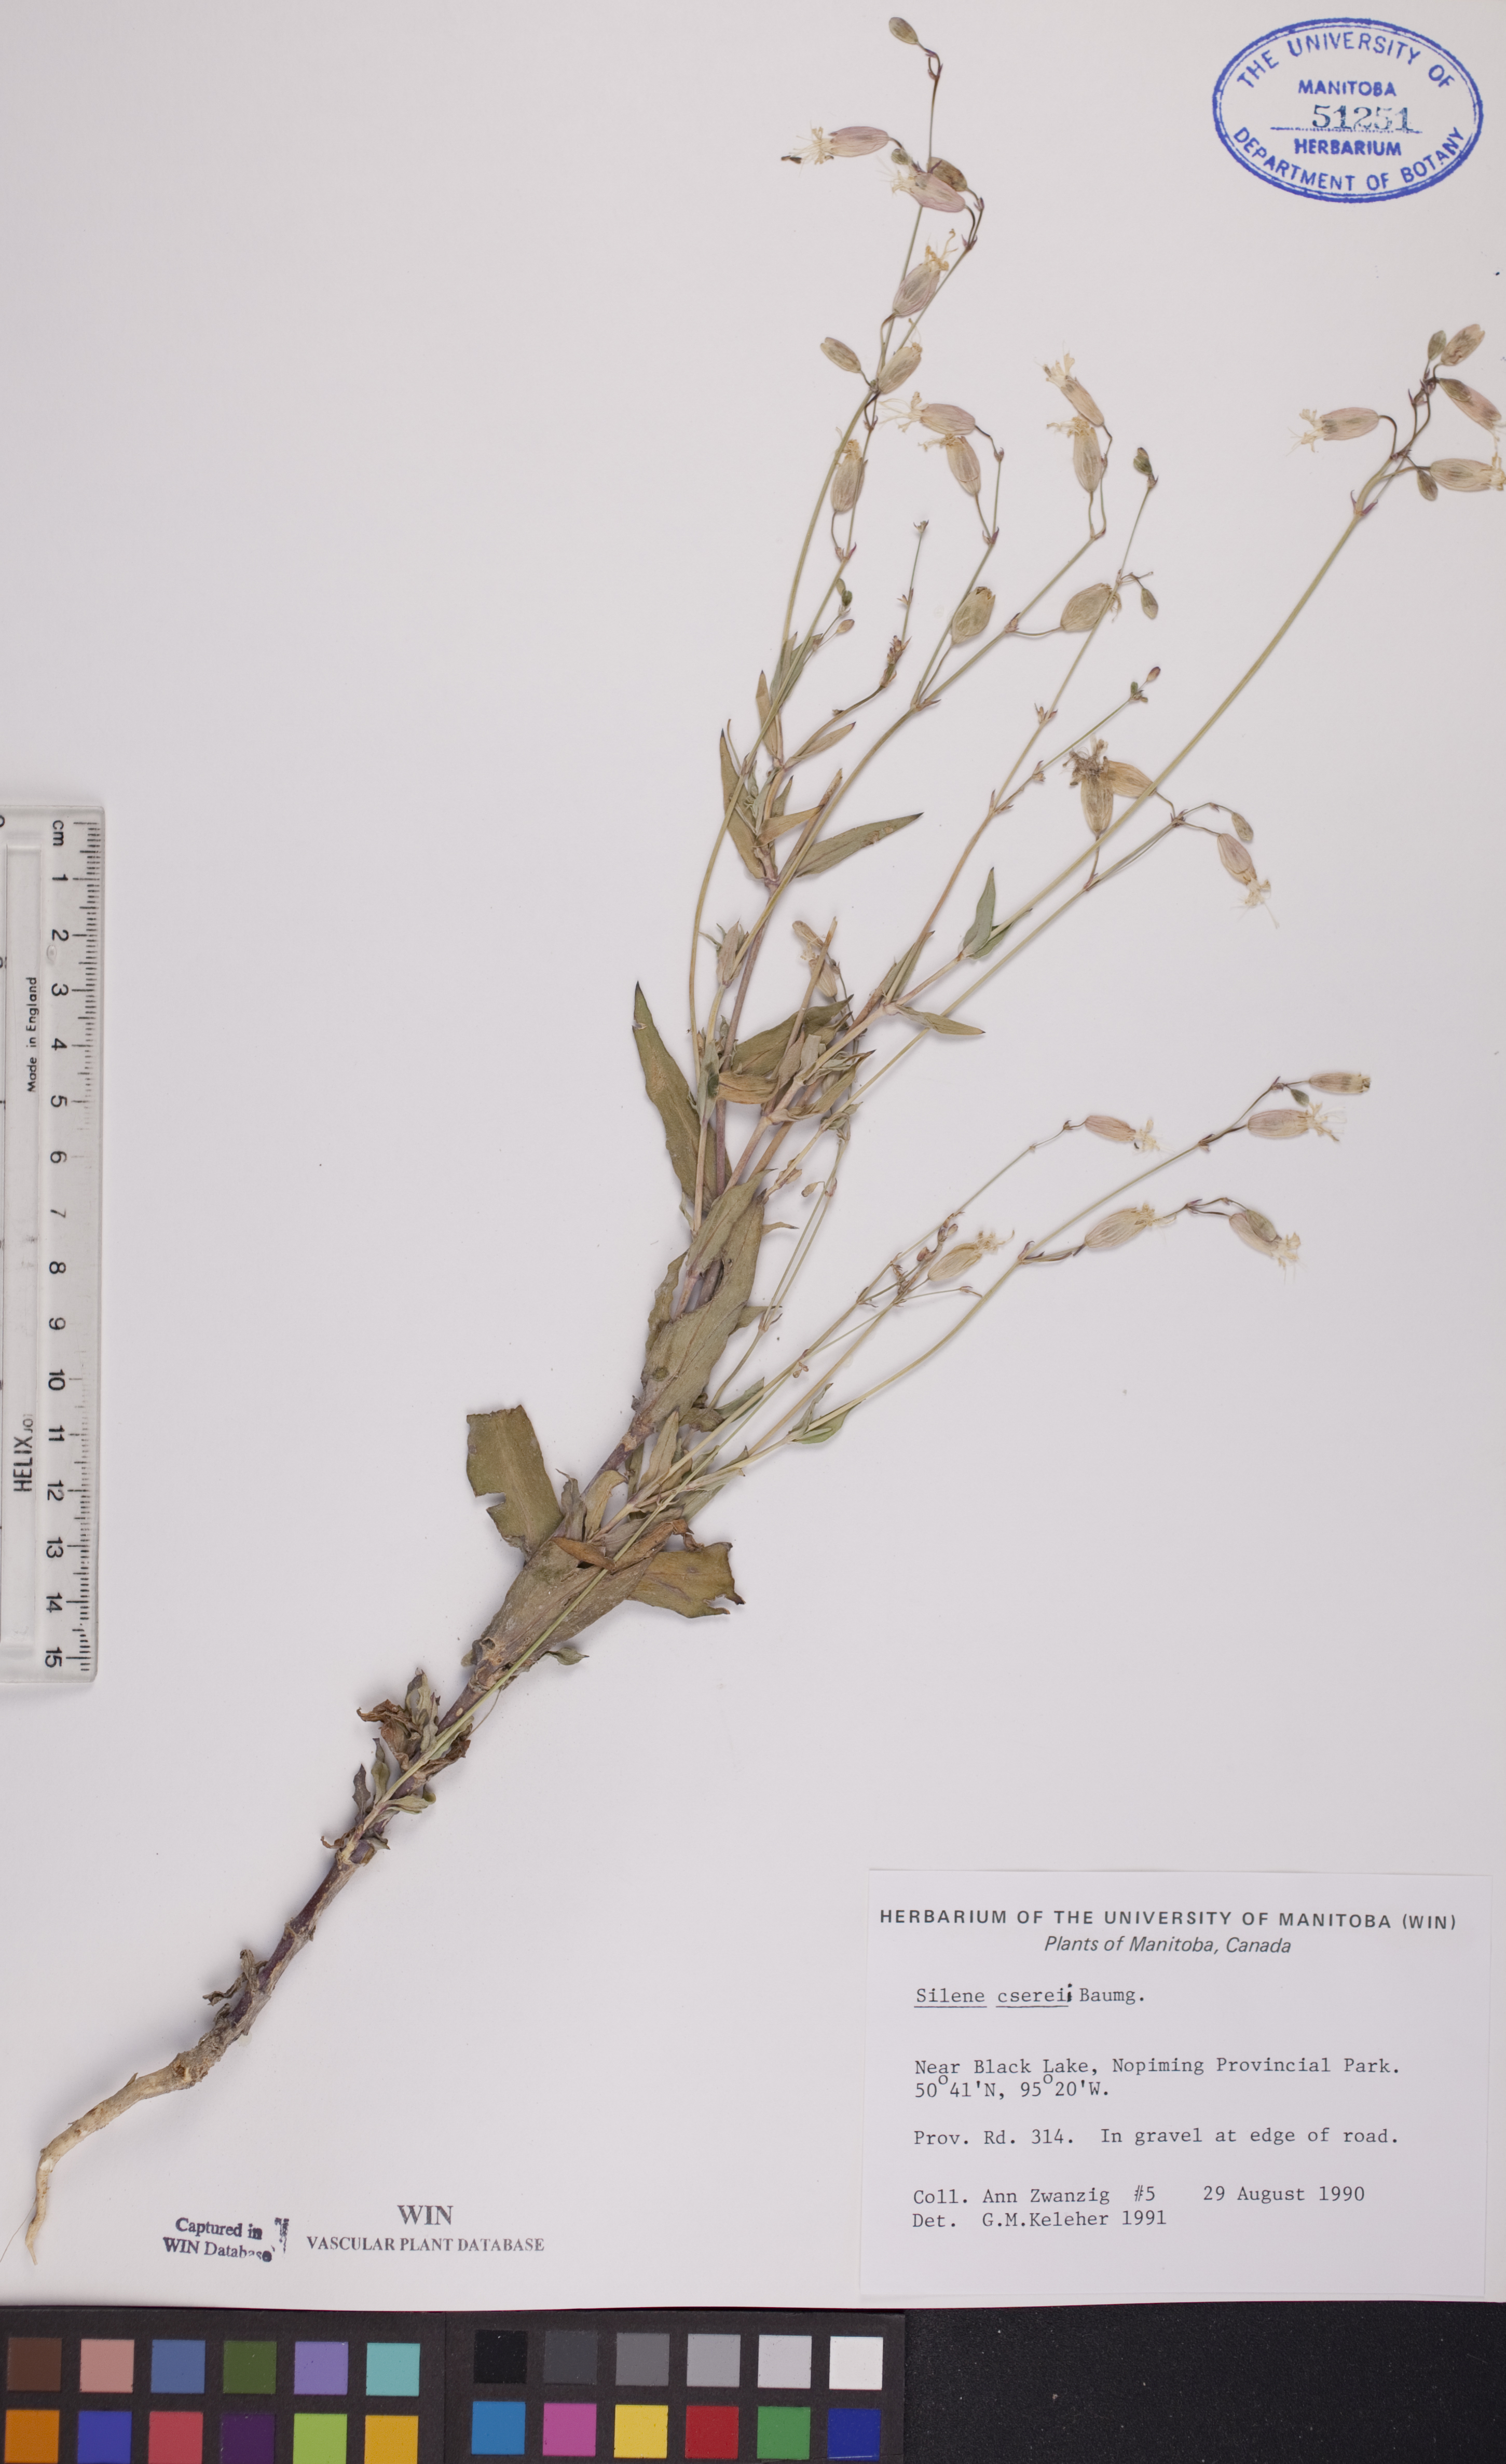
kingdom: Plantae
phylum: Tracheophyta
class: Magnoliopsida
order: Caryophyllales
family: Caryophyllaceae
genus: Silene
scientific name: Silene csereii
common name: Balkan catchfly
